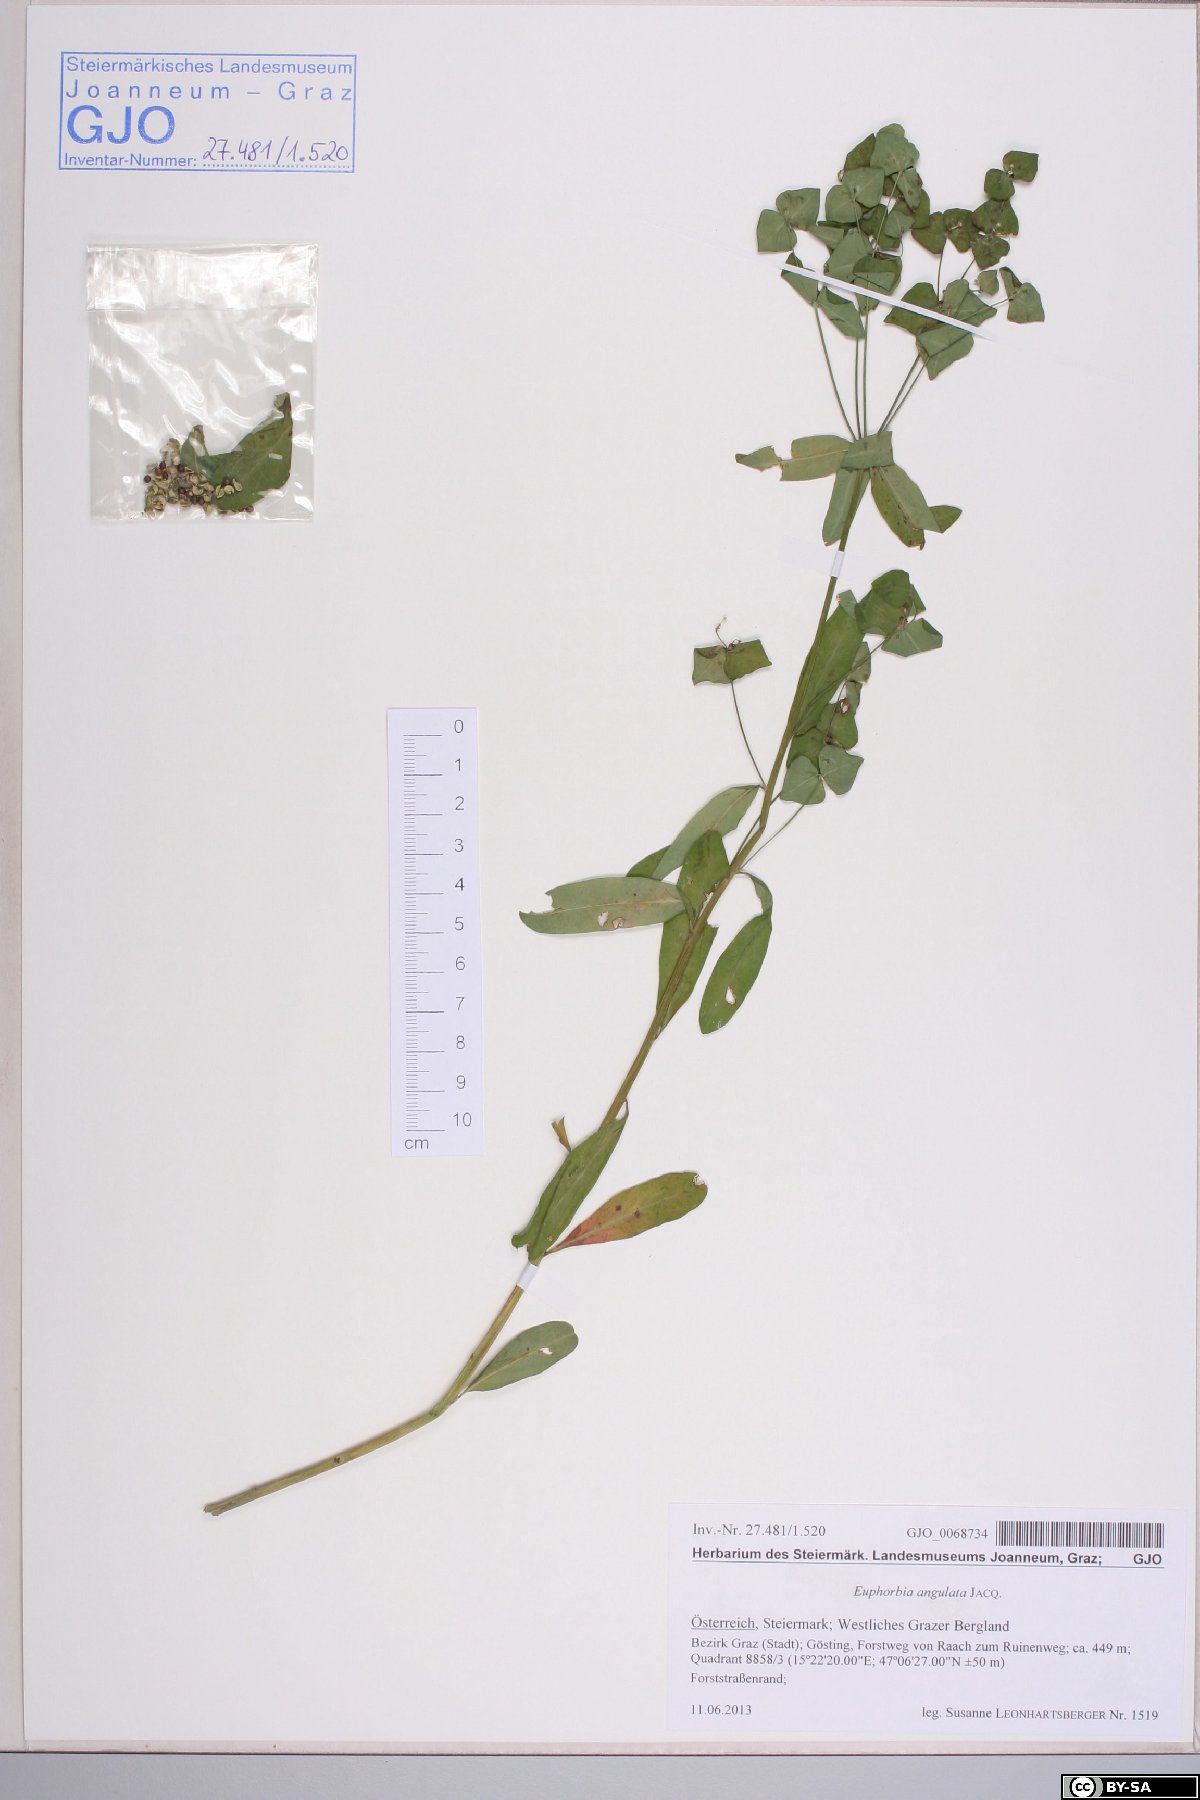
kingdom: Plantae
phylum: Tracheophyta
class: Magnoliopsida
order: Malpighiales
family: Euphorbiaceae
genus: Euphorbia
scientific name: Euphorbia angulata
